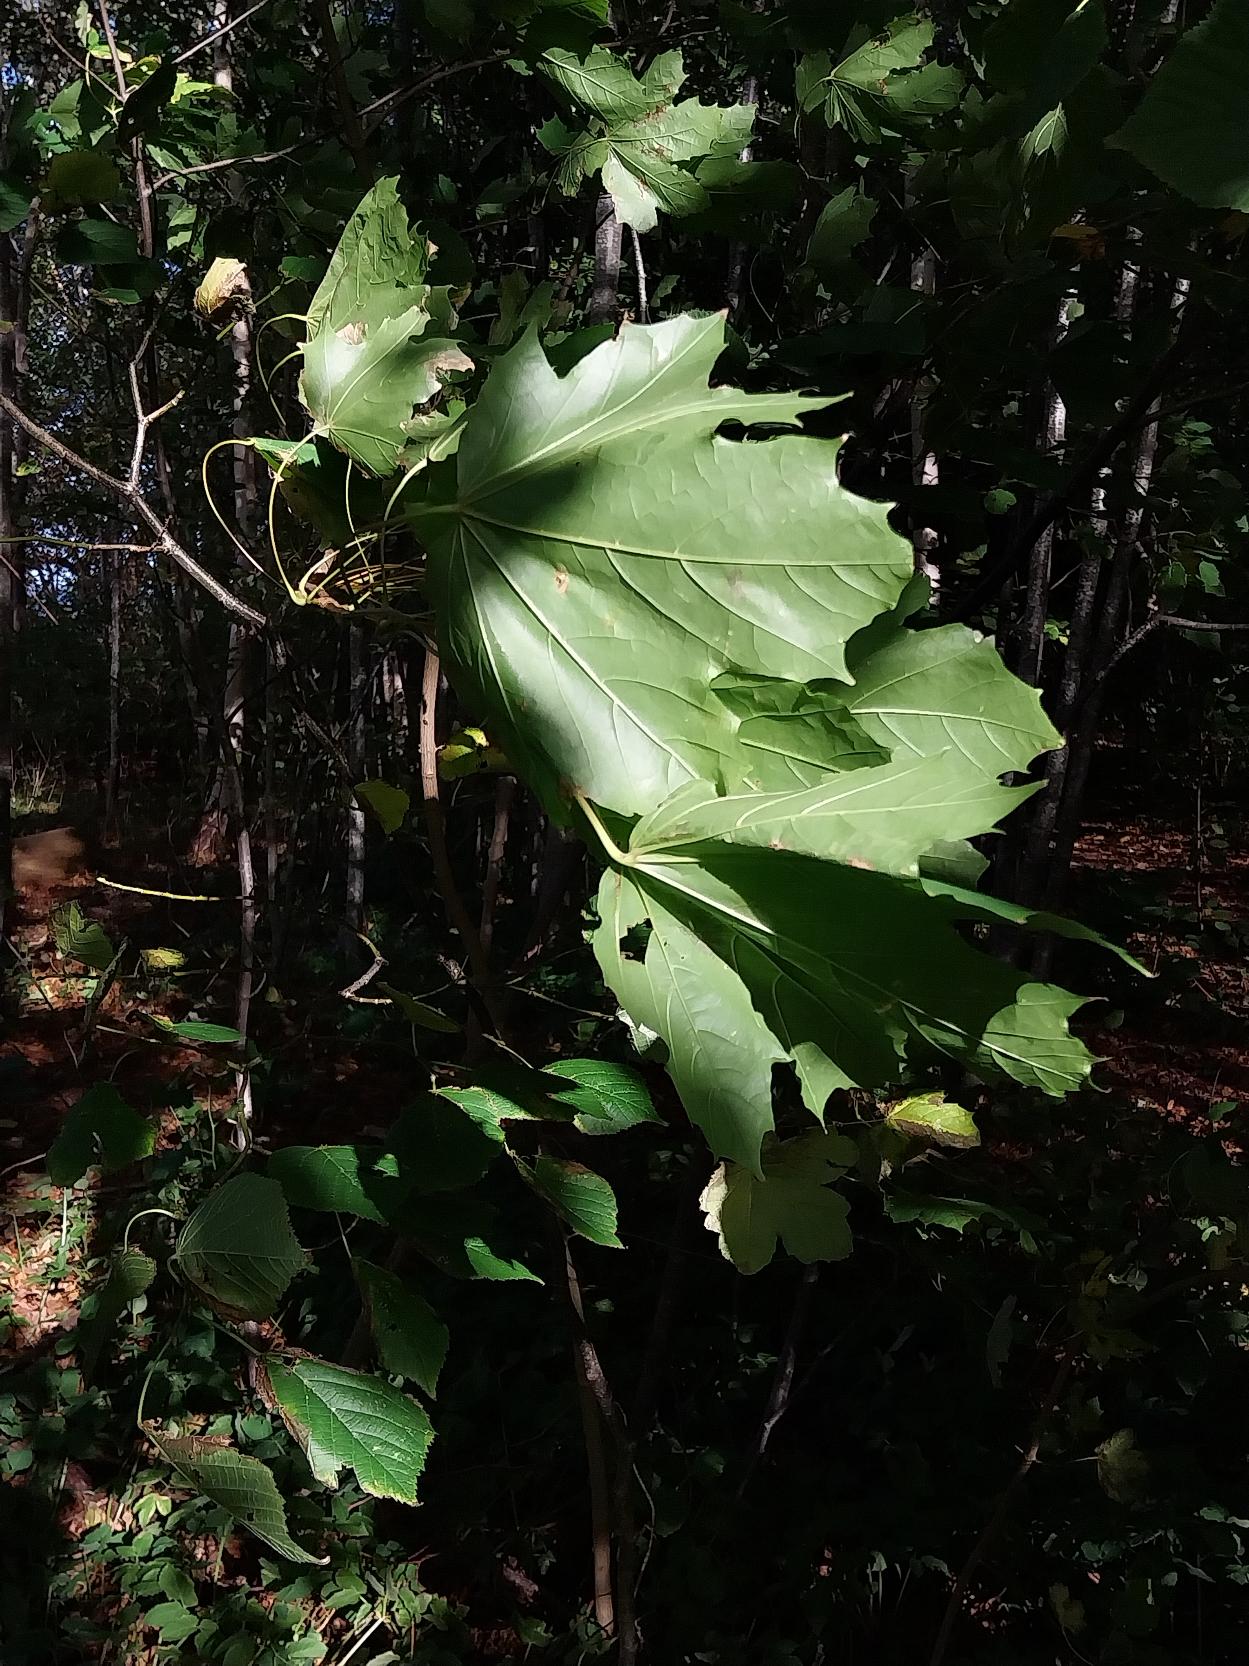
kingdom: Plantae
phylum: Tracheophyta
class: Magnoliopsida
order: Sapindales
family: Sapindaceae
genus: Acer
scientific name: Acer platanoides
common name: Spids-løn
